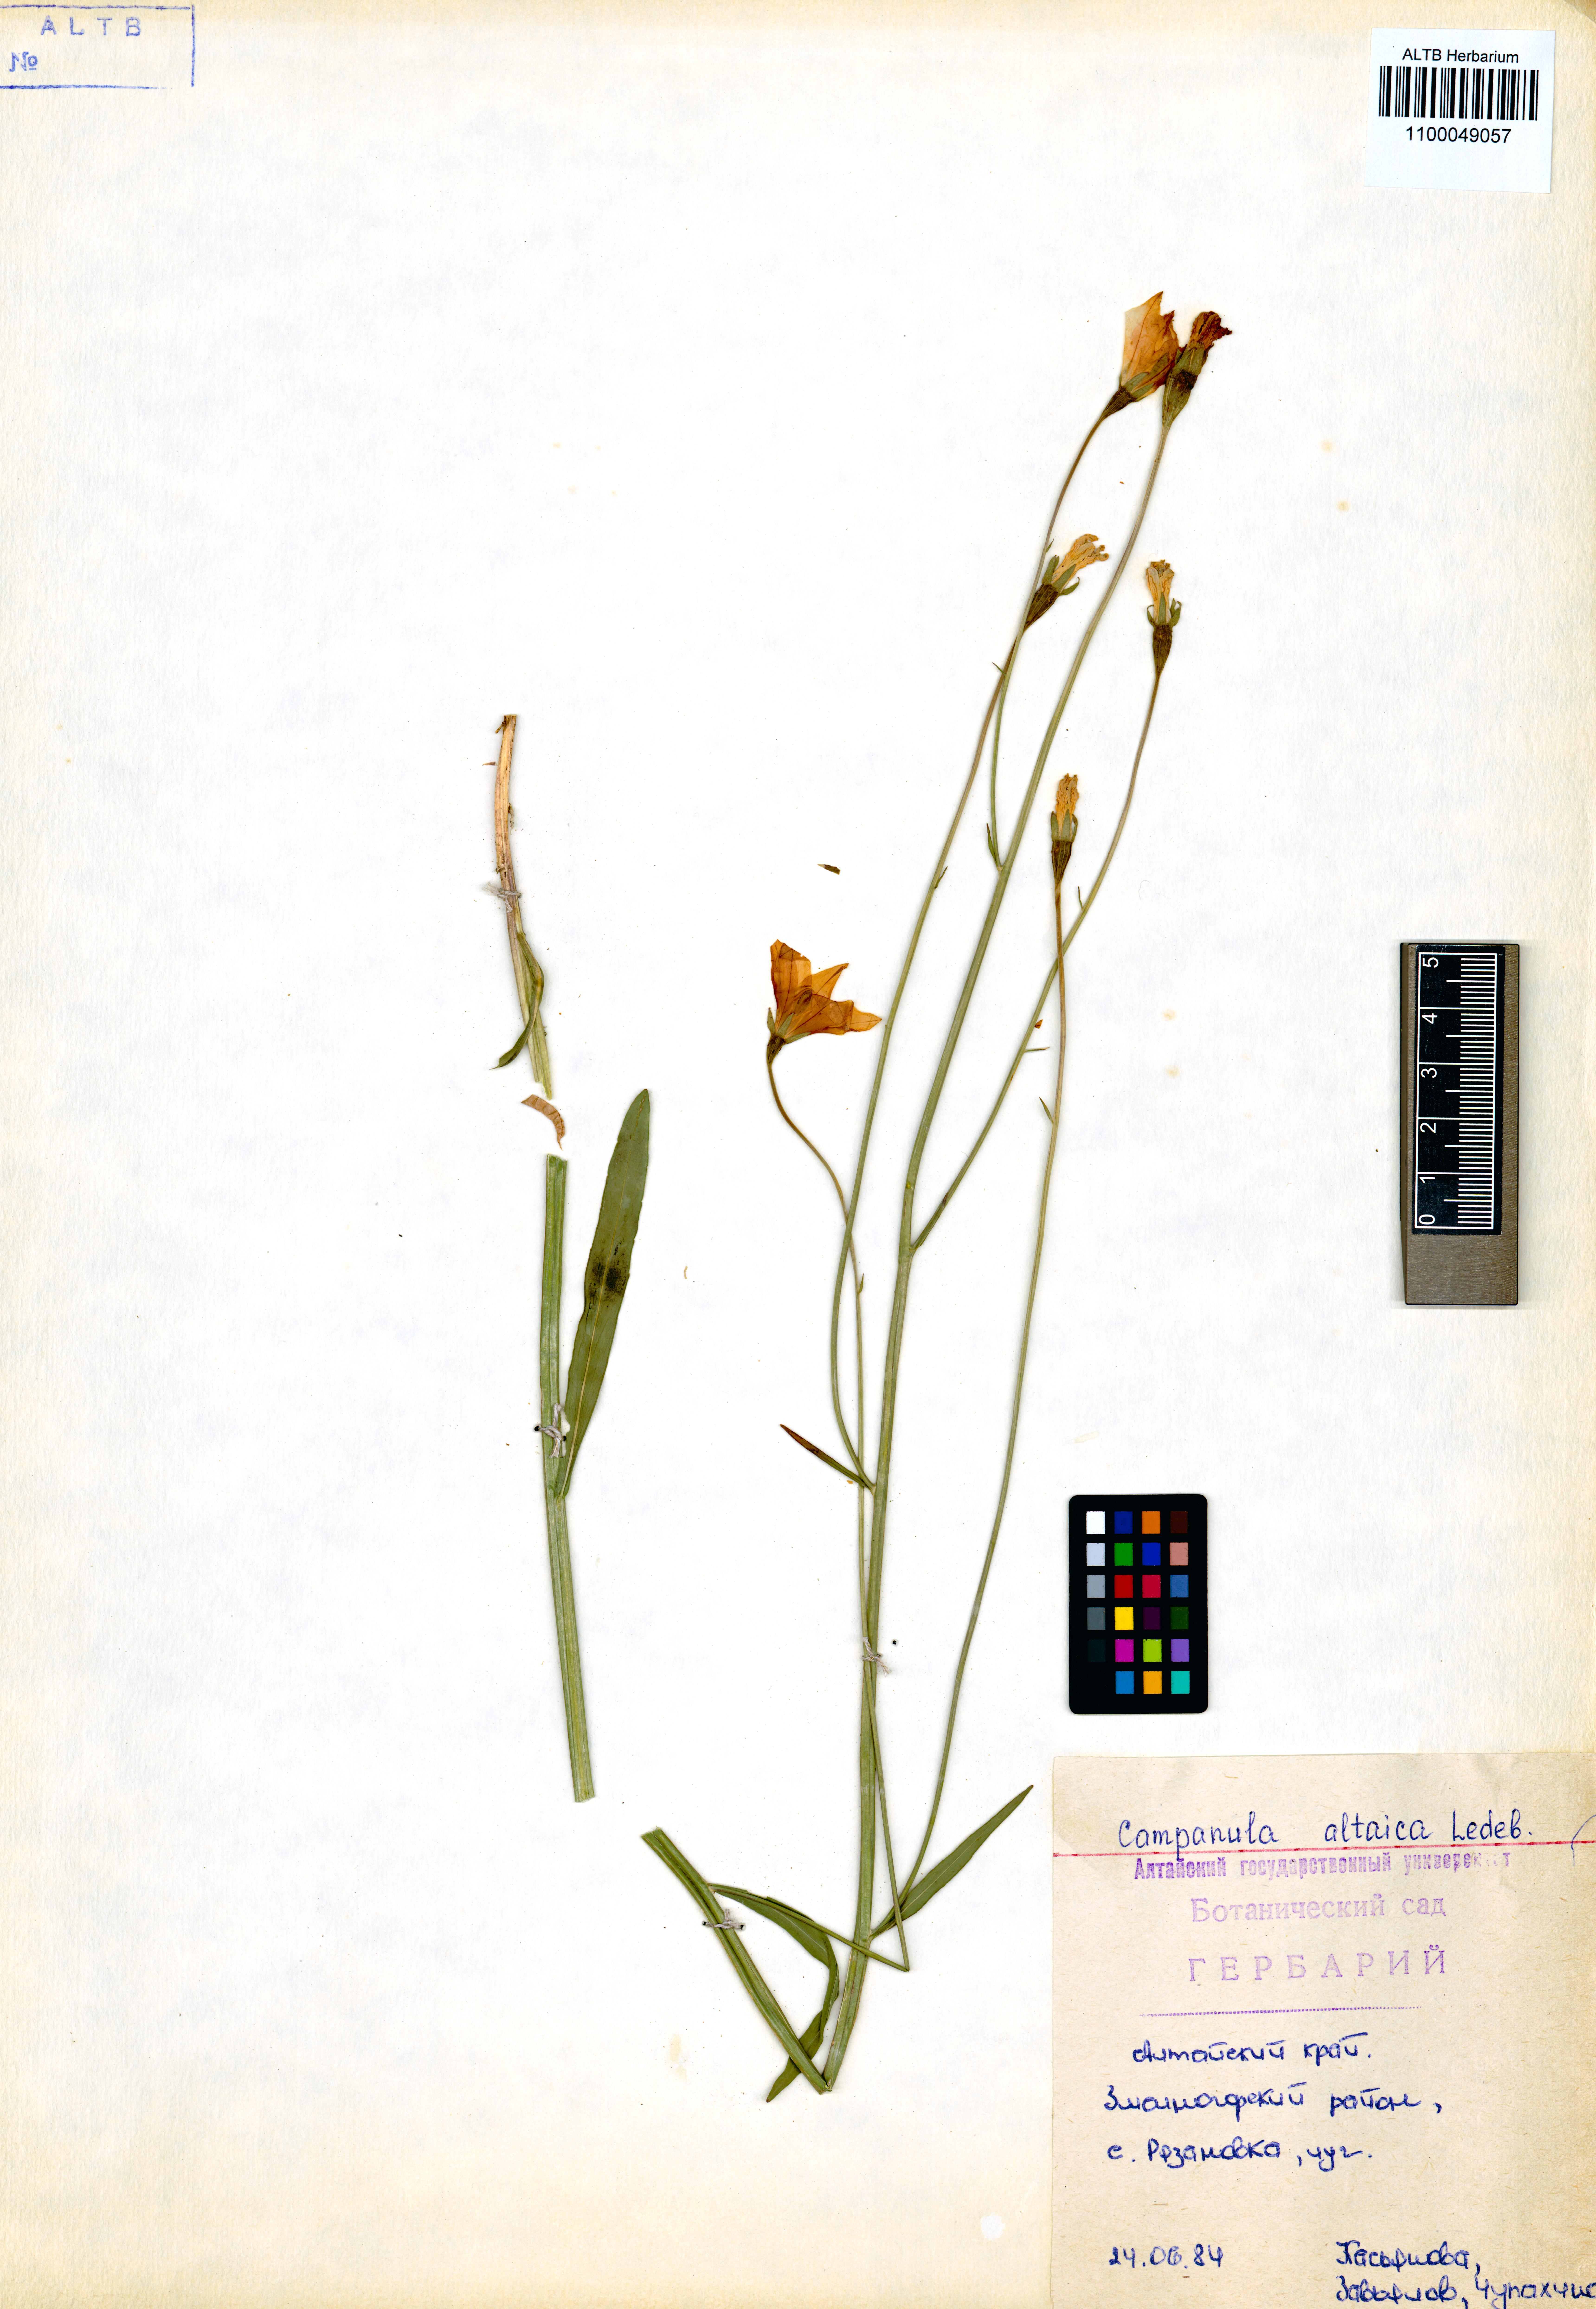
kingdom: Plantae
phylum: Tracheophyta
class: Magnoliopsida
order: Asterales
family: Campanulaceae
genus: Campanula
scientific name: Campanula stevenii
